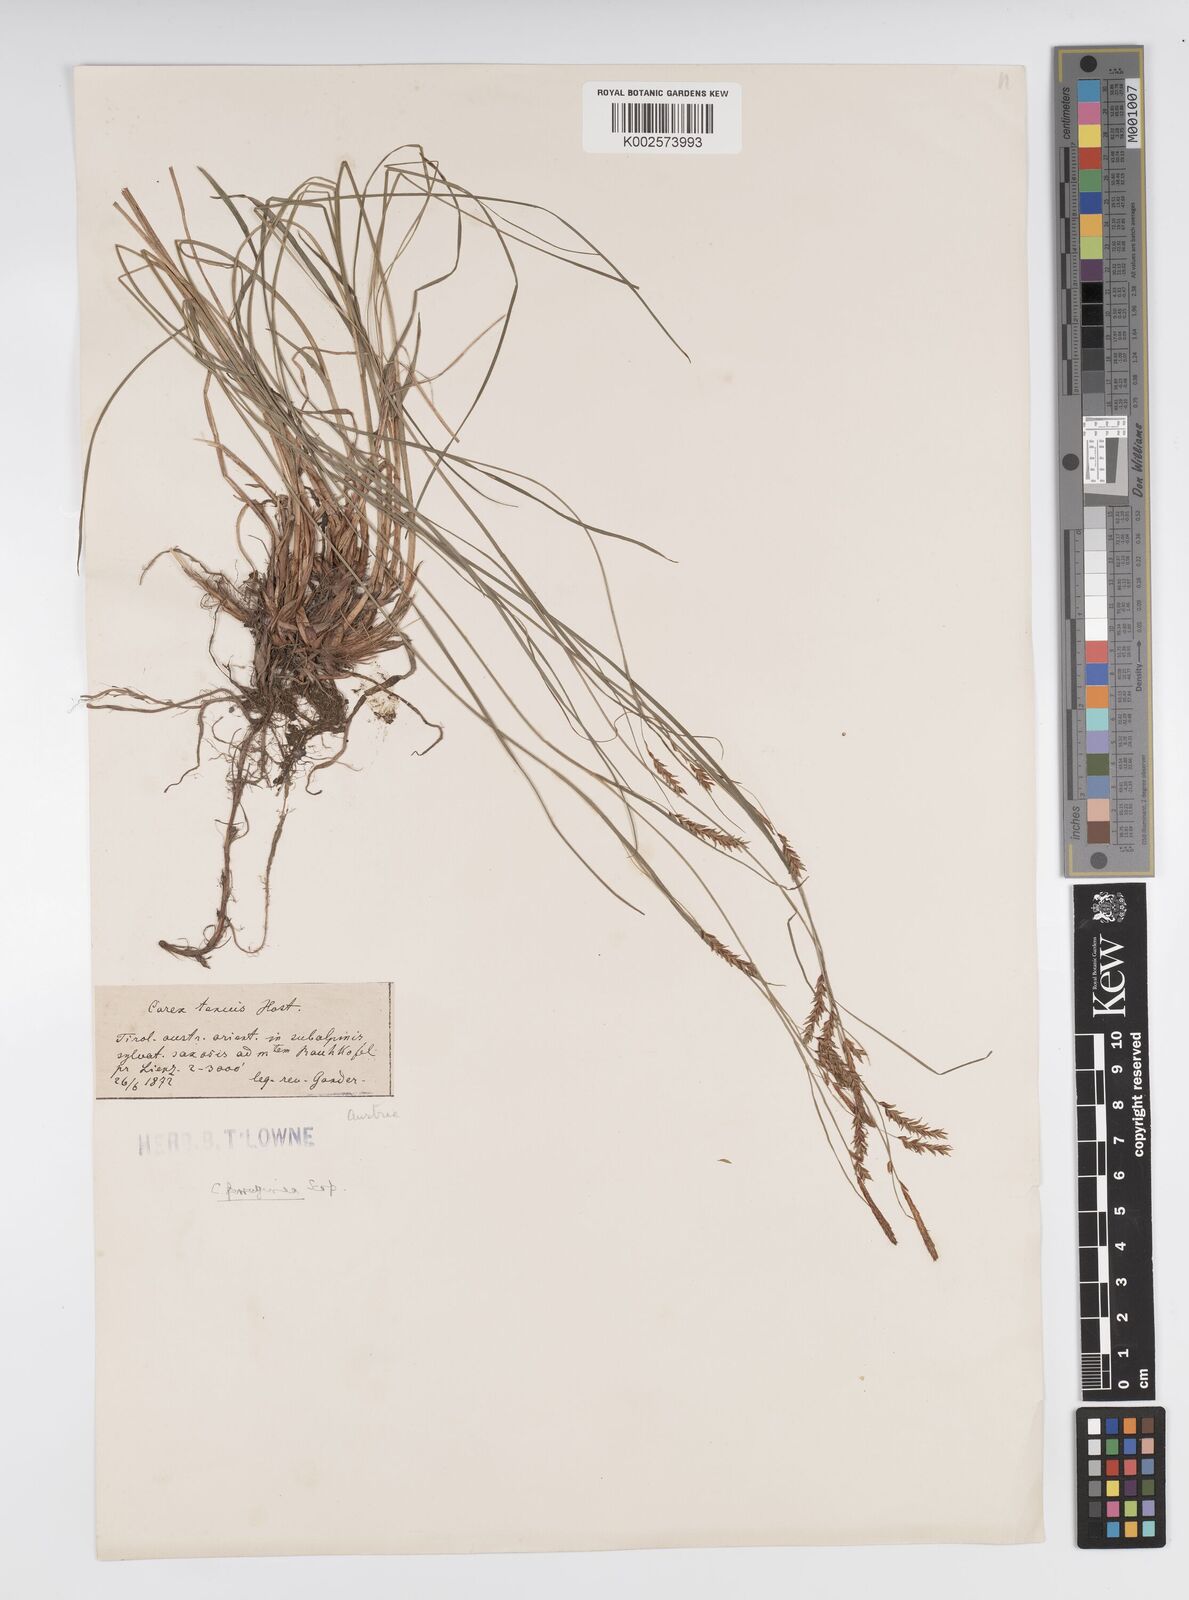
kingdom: Plantae
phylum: Tracheophyta
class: Liliopsida
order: Poales
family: Cyperaceae
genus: Carex
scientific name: Carex brachystachys
